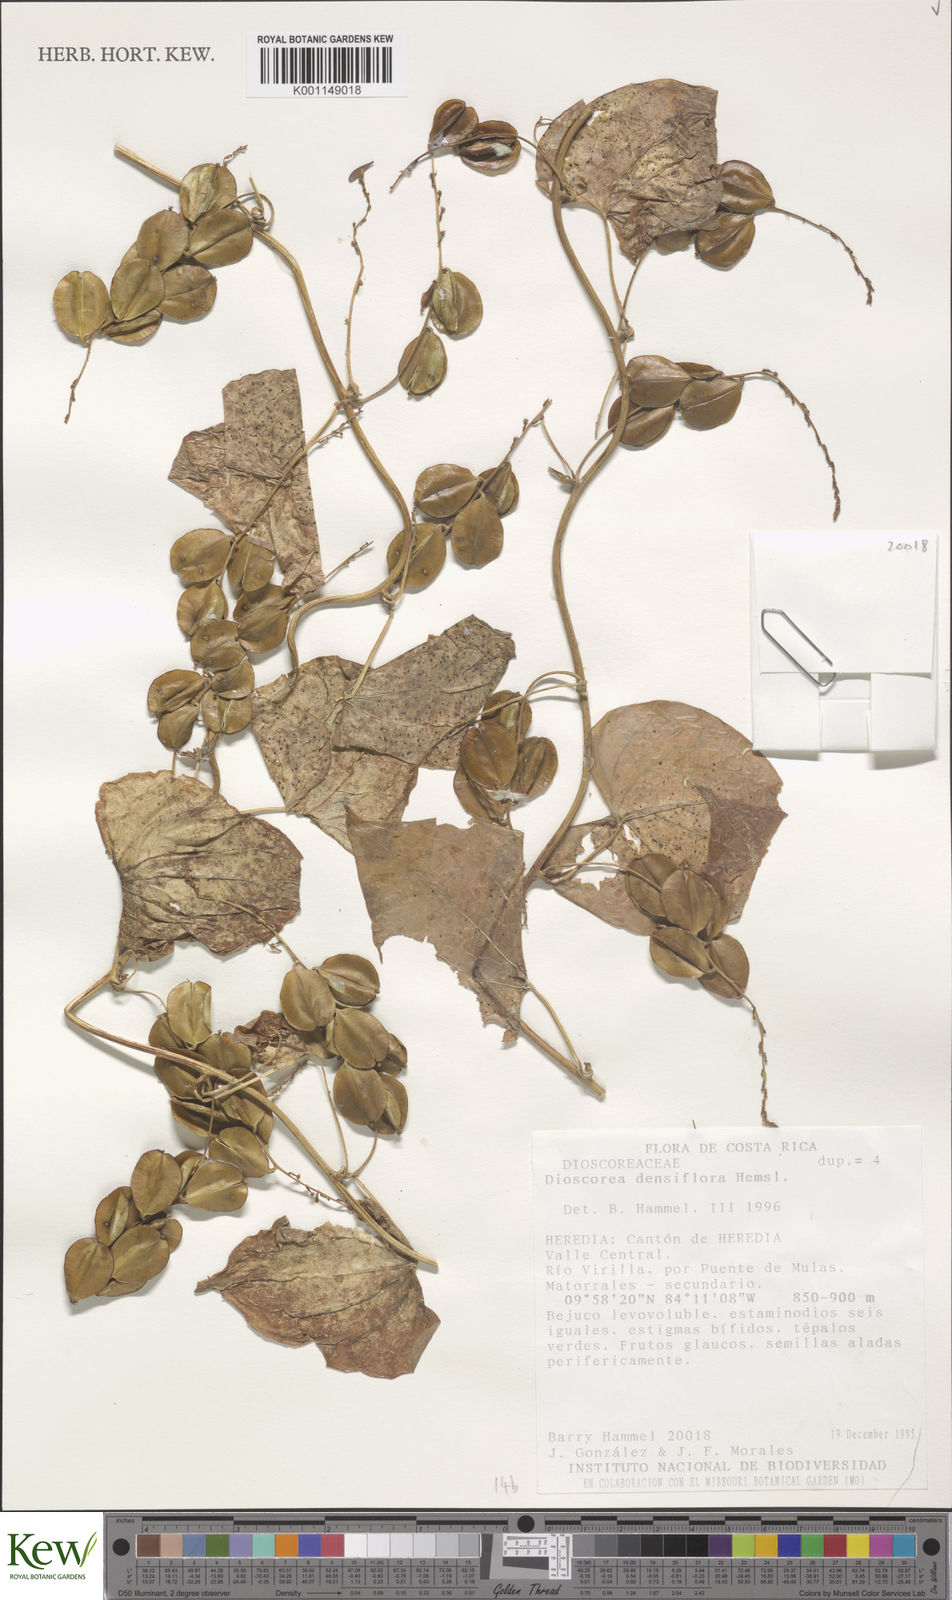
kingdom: Plantae
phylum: Tracheophyta
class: Liliopsida
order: Dioscoreales
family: Dioscoreaceae
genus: Dioscorea
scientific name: Dioscorea densiflora
